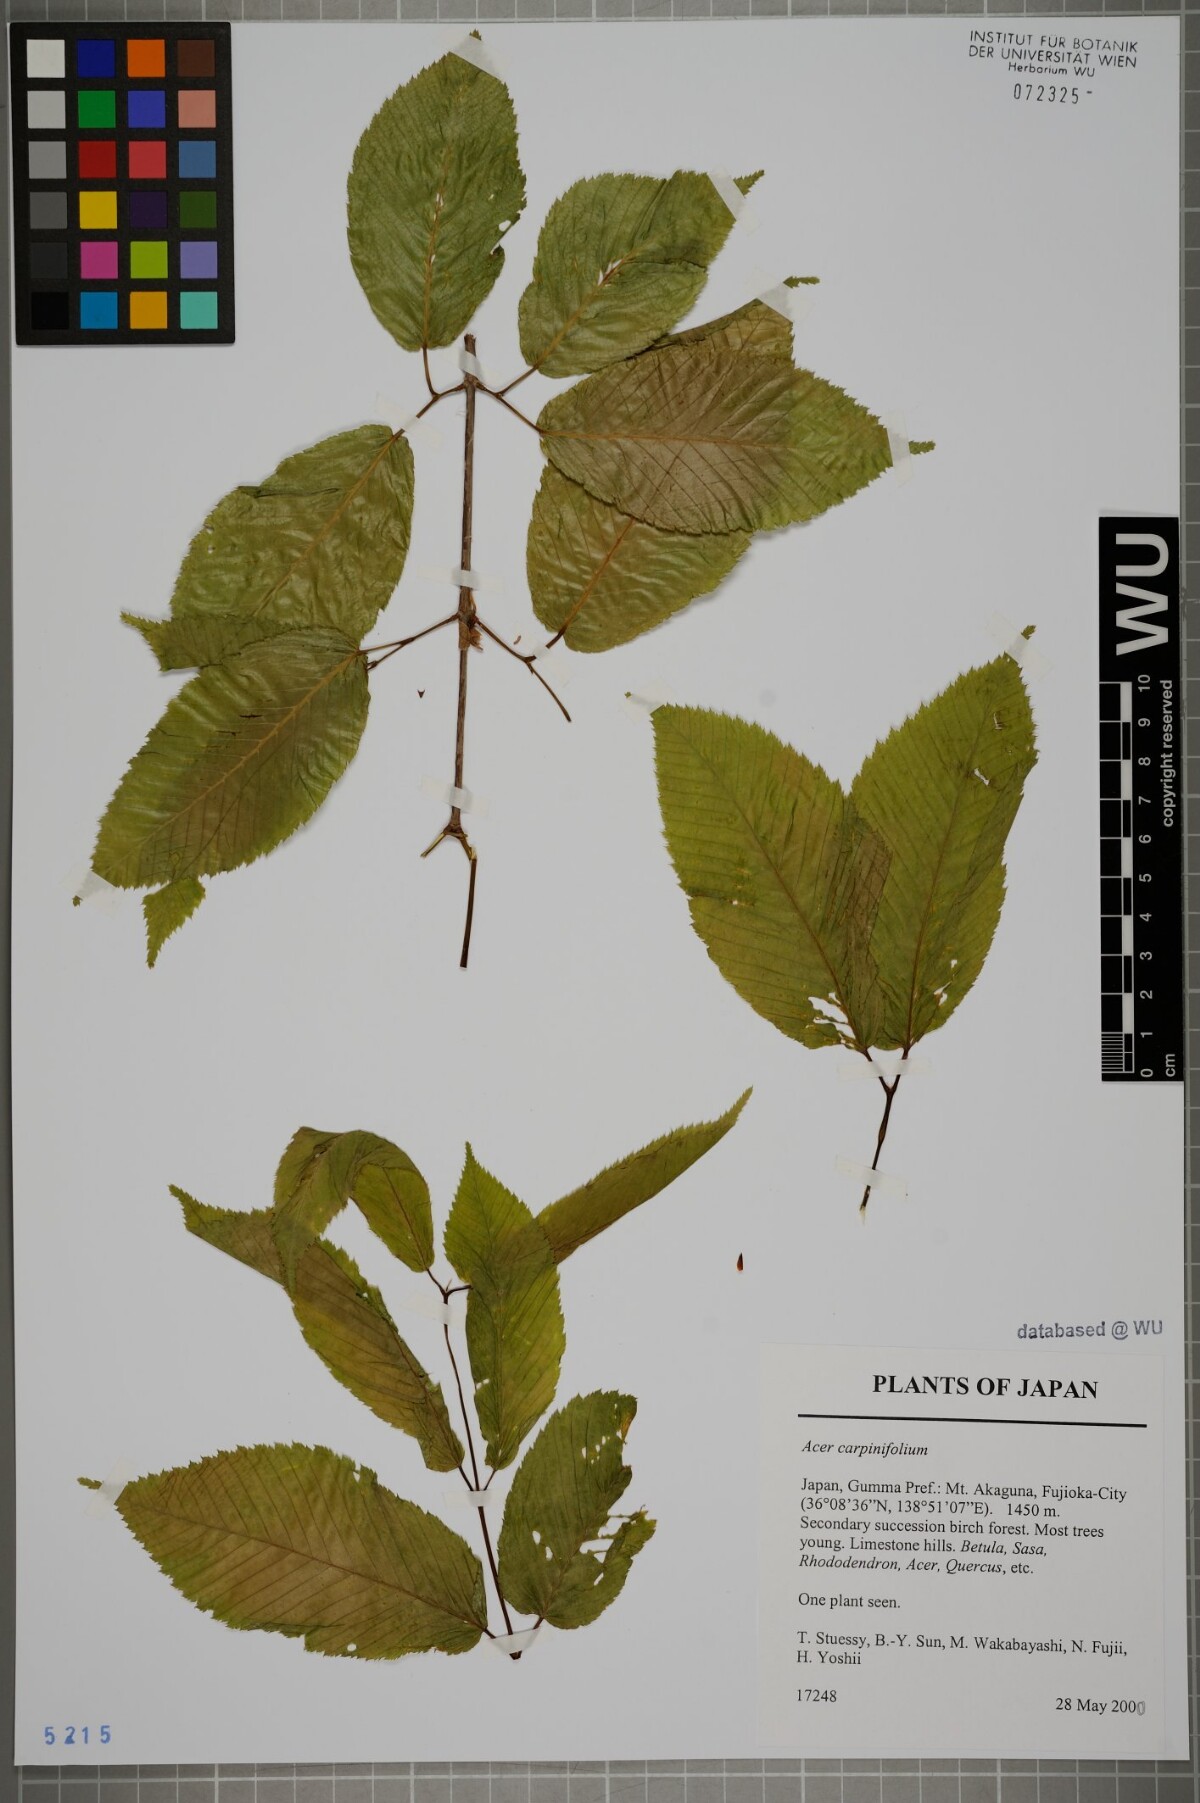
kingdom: Plantae
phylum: Tracheophyta
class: Magnoliopsida
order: Sapindales
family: Sapindaceae
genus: Acer
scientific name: Acer carpinifolium
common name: Hornbeam maple
